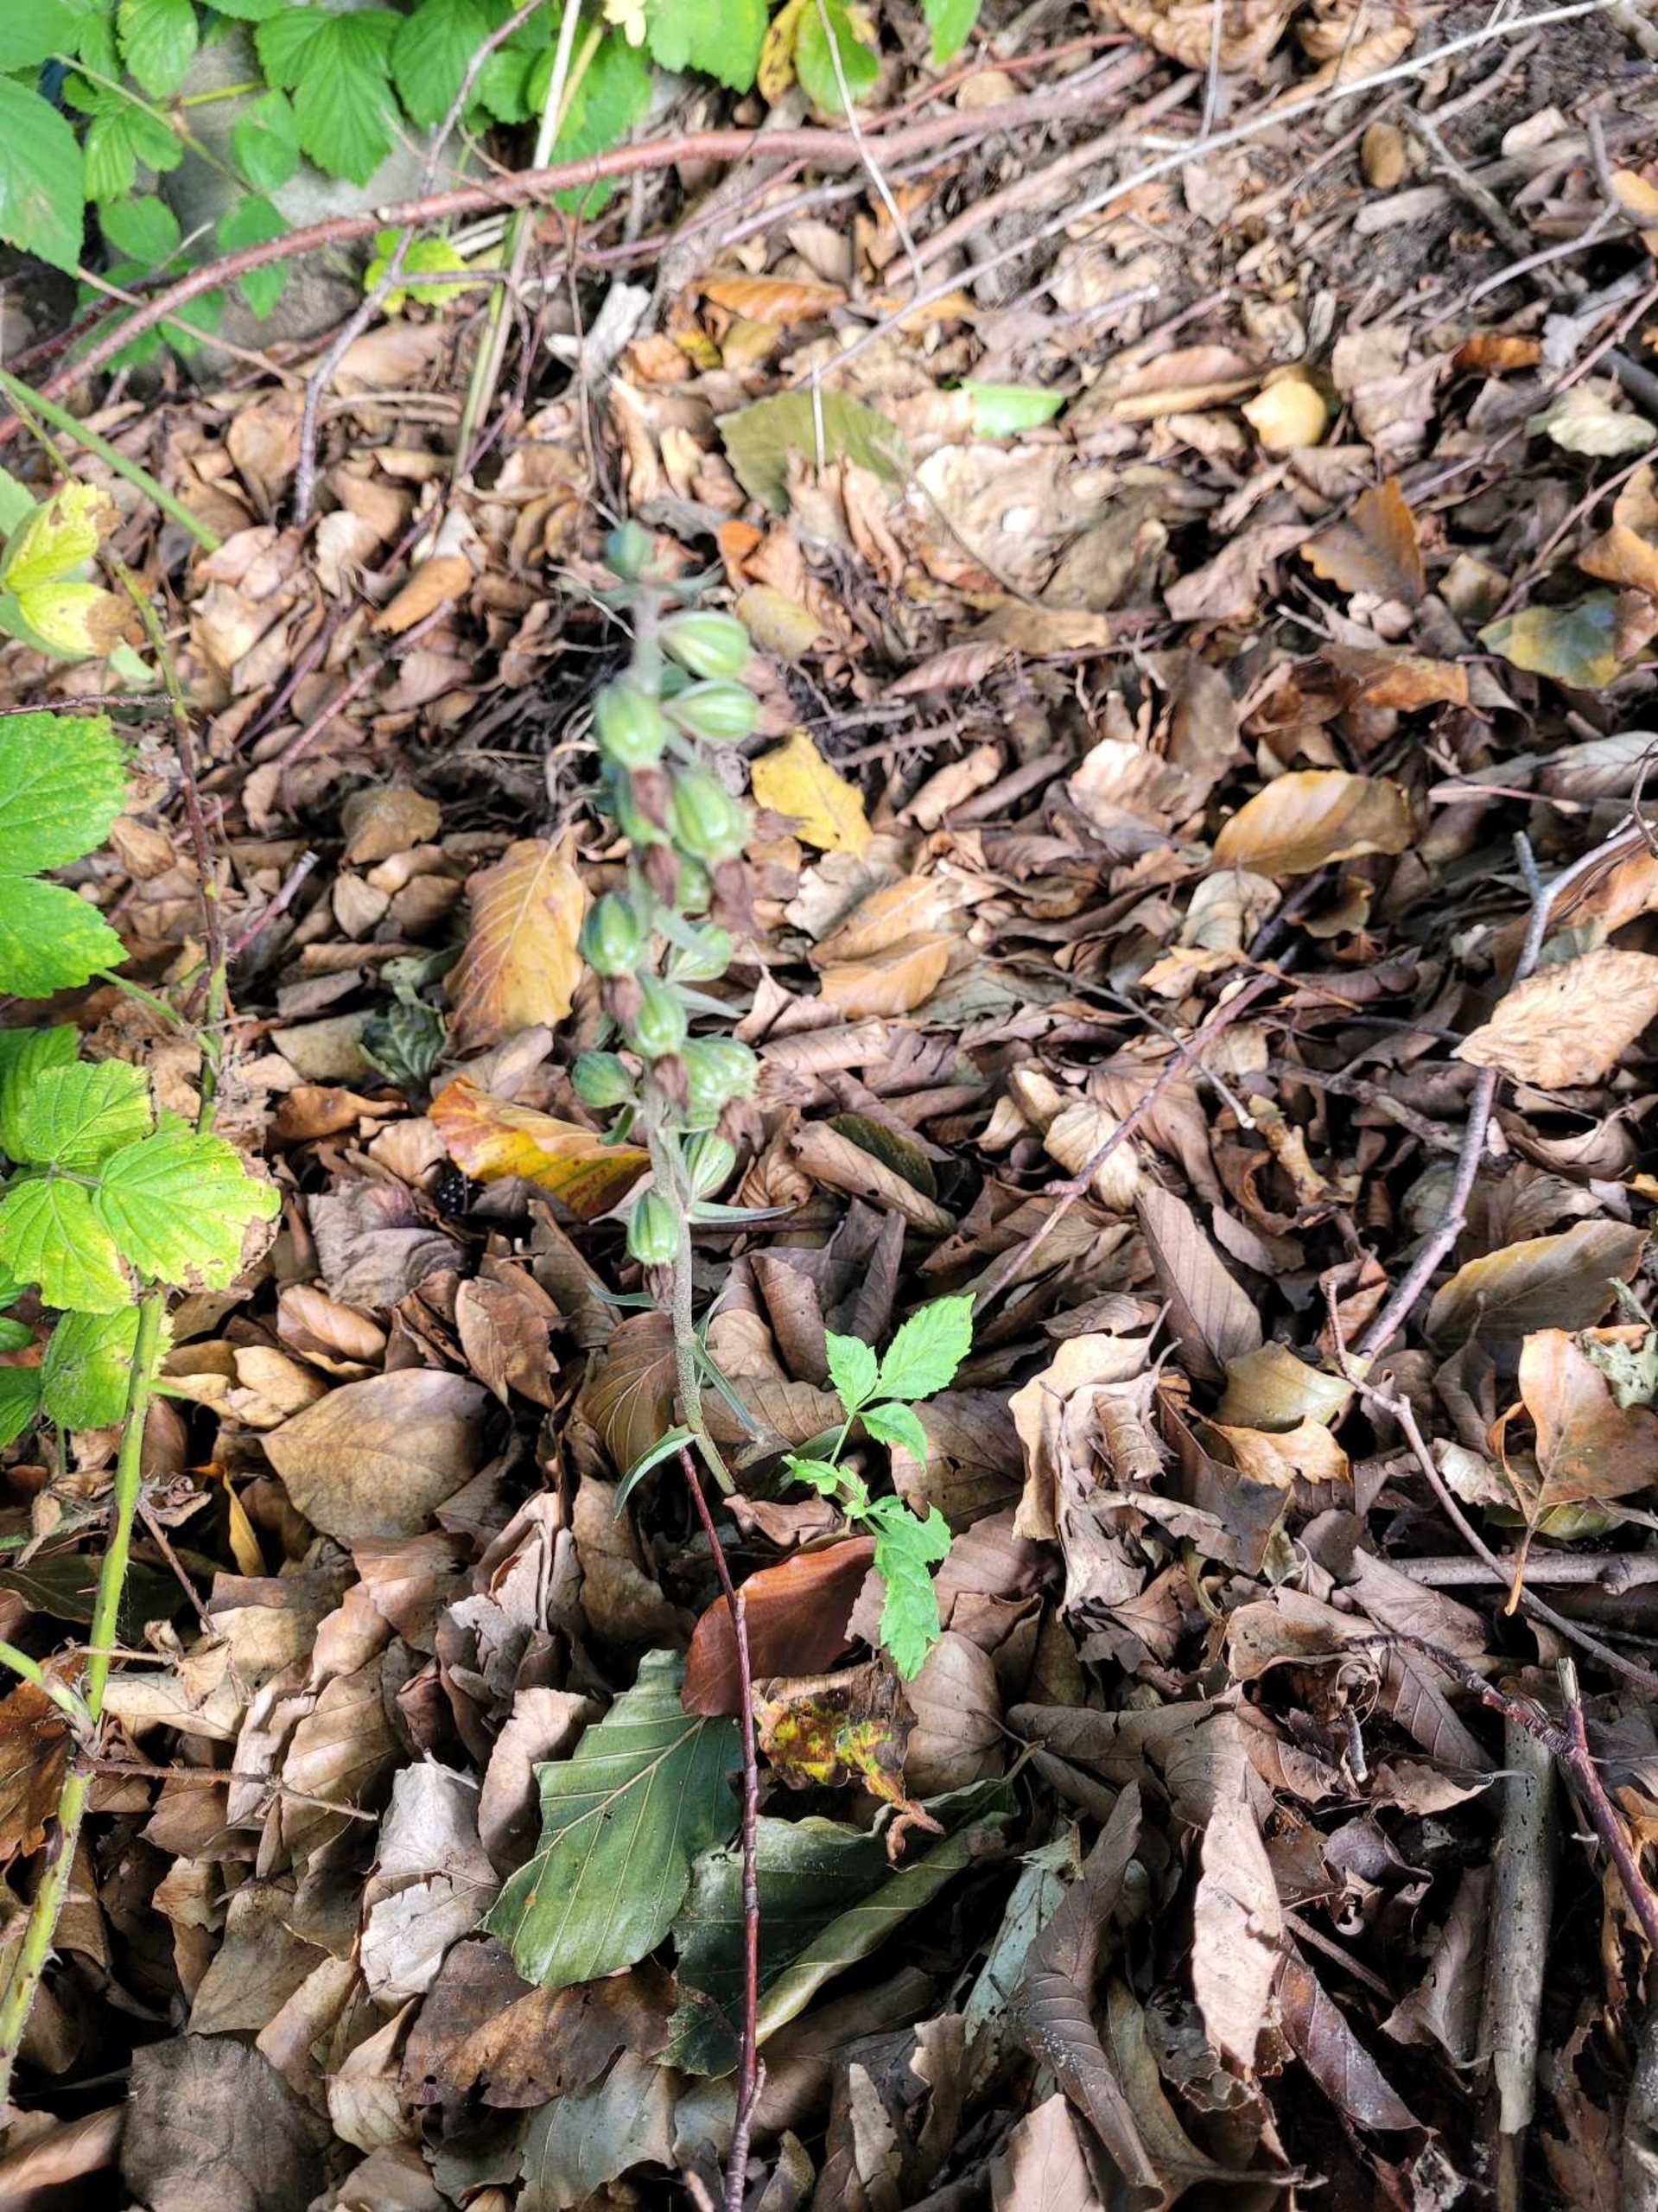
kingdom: Plantae
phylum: Tracheophyta
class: Liliopsida
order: Asparagales
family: Orchidaceae
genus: Epipactis
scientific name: Epipactis purpurata
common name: Tætblomstret hullæbe
